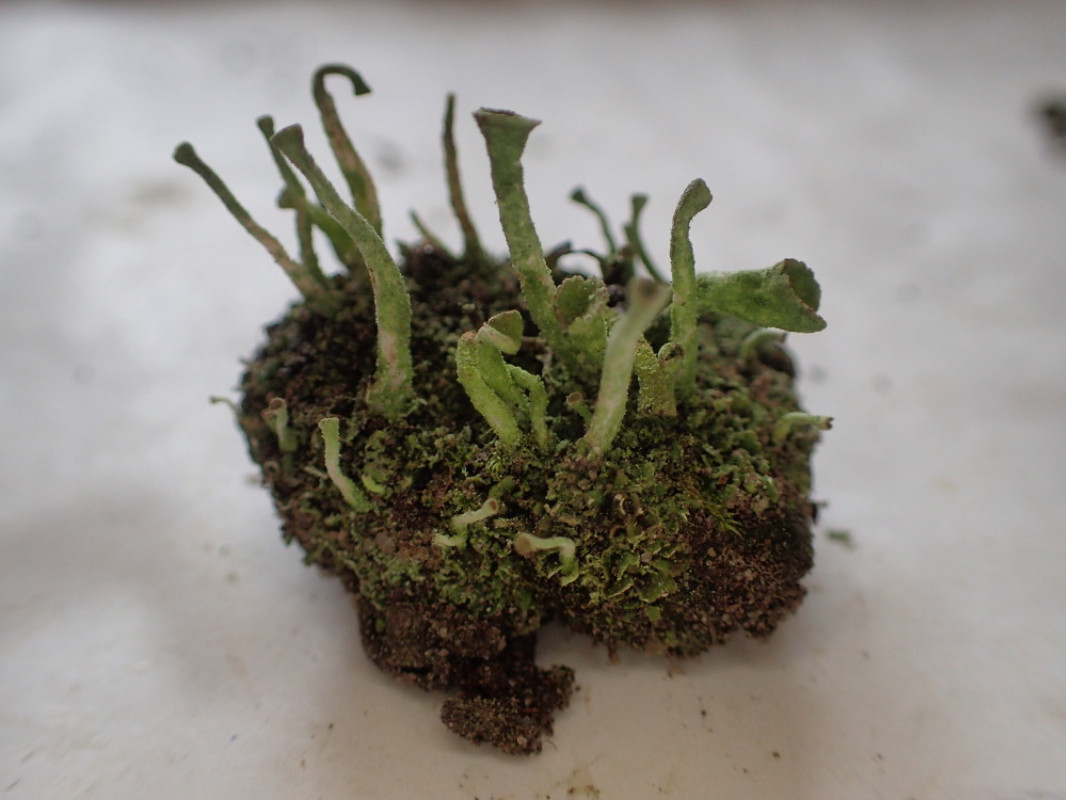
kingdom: Fungi
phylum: Ascomycota
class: Lecanoromycetes
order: Lecanorales
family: Cladoniaceae
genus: Cladonia
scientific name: Cladonia fimbriata
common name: bleggrøn bægerlav
